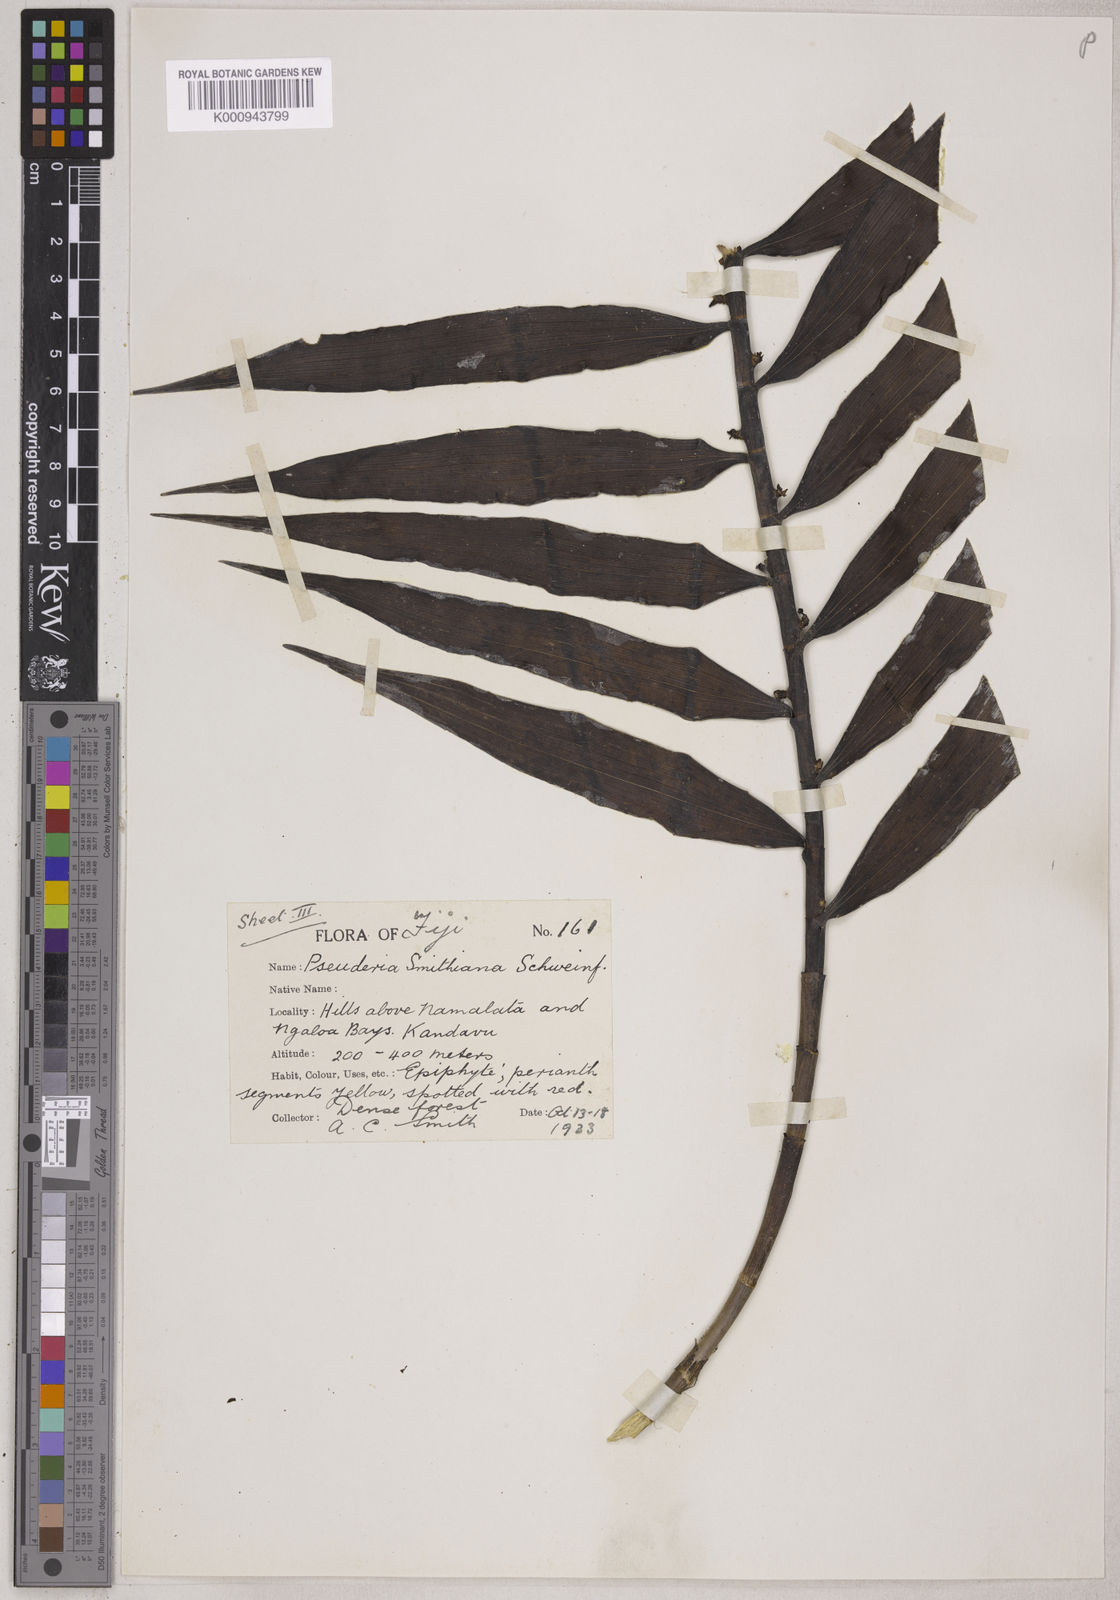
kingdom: Plantae
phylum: Tracheophyta
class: Liliopsida
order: Asparagales
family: Orchidaceae
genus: Pseuderia
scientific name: Pseuderia smithiana
